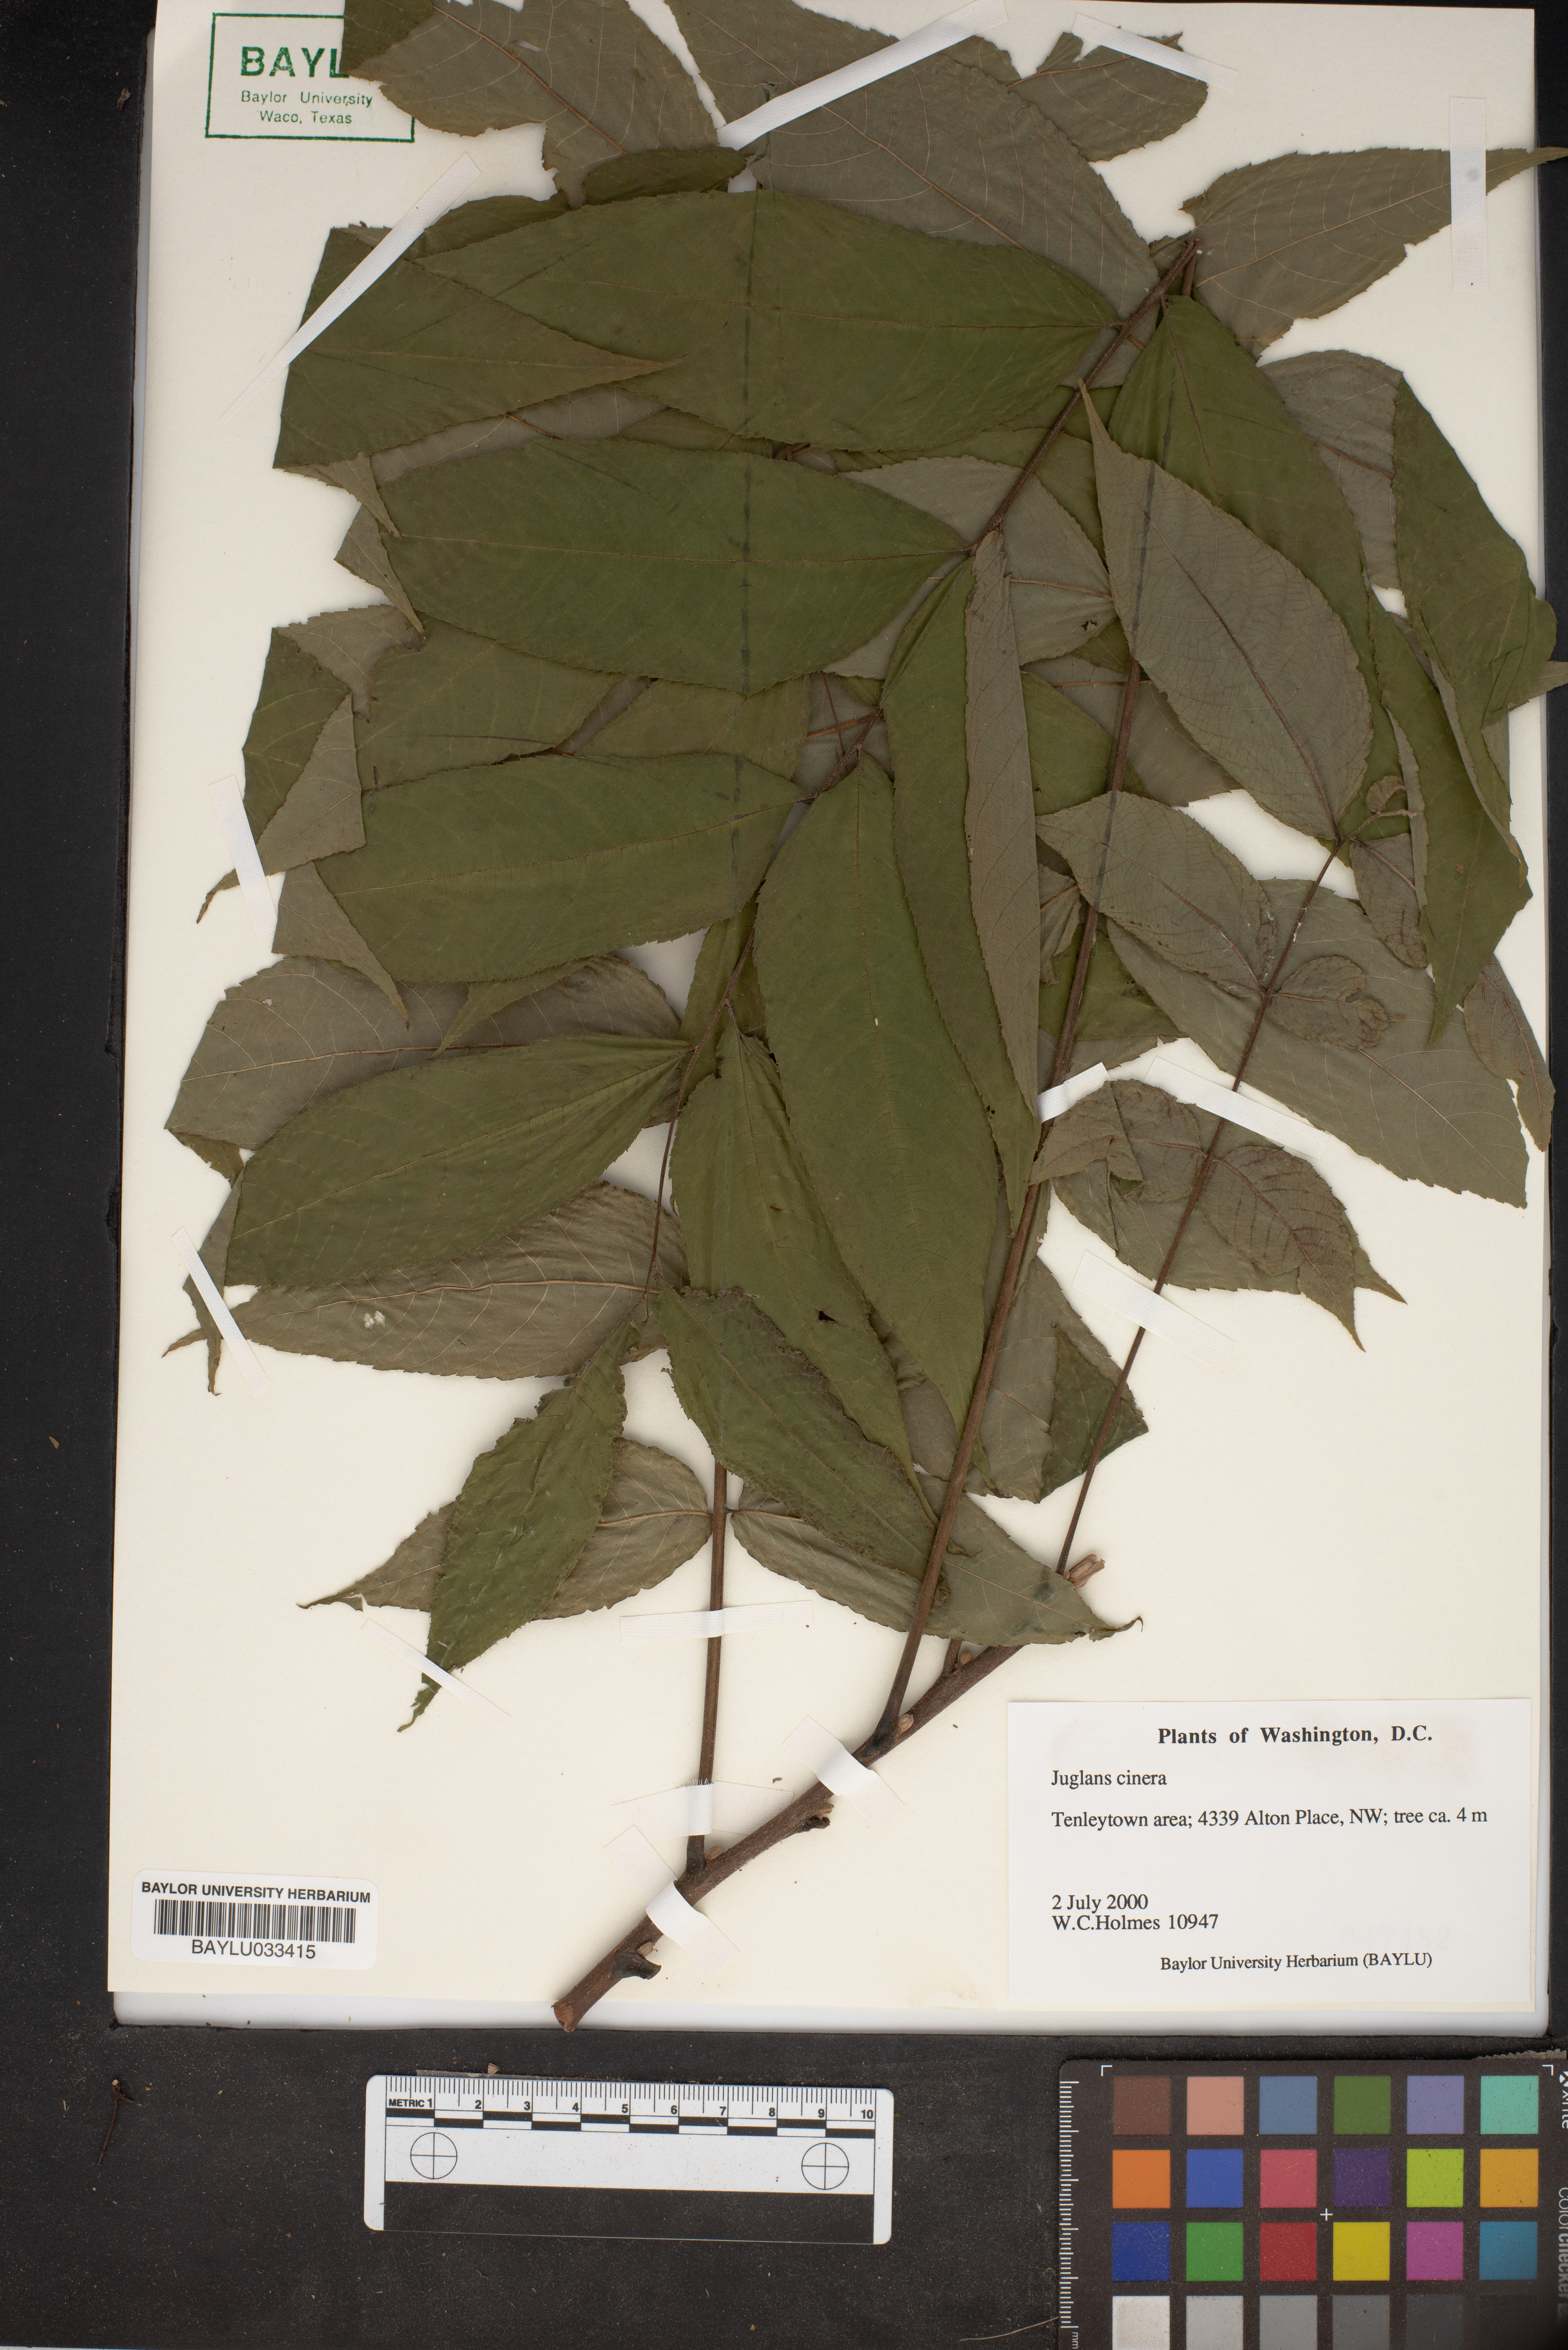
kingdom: Plantae
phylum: Tracheophyta
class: Magnoliopsida
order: Fagales
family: Juglandaceae
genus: Juglans
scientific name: Juglans cinerea
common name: Butternut
